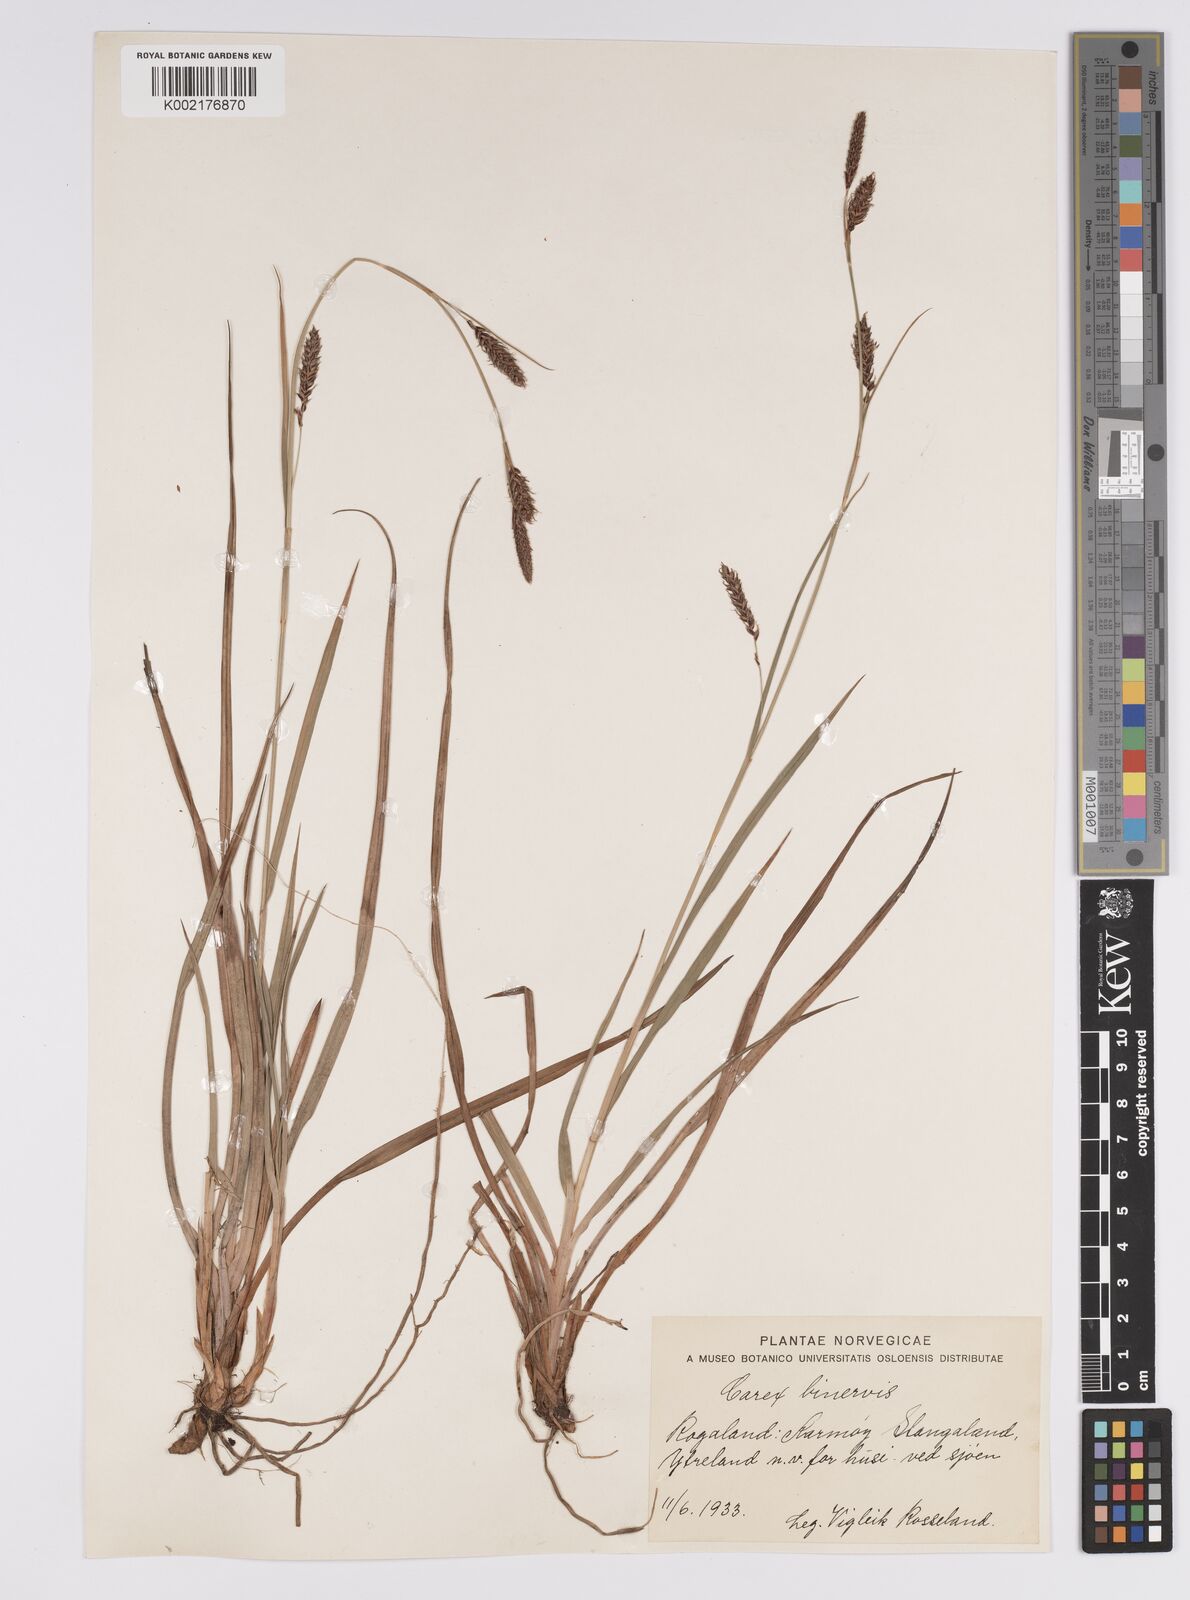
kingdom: Plantae
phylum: Tracheophyta
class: Liliopsida
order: Poales
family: Cyperaceae
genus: Carex
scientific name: Carex binervis
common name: Green-ribbed sedge
